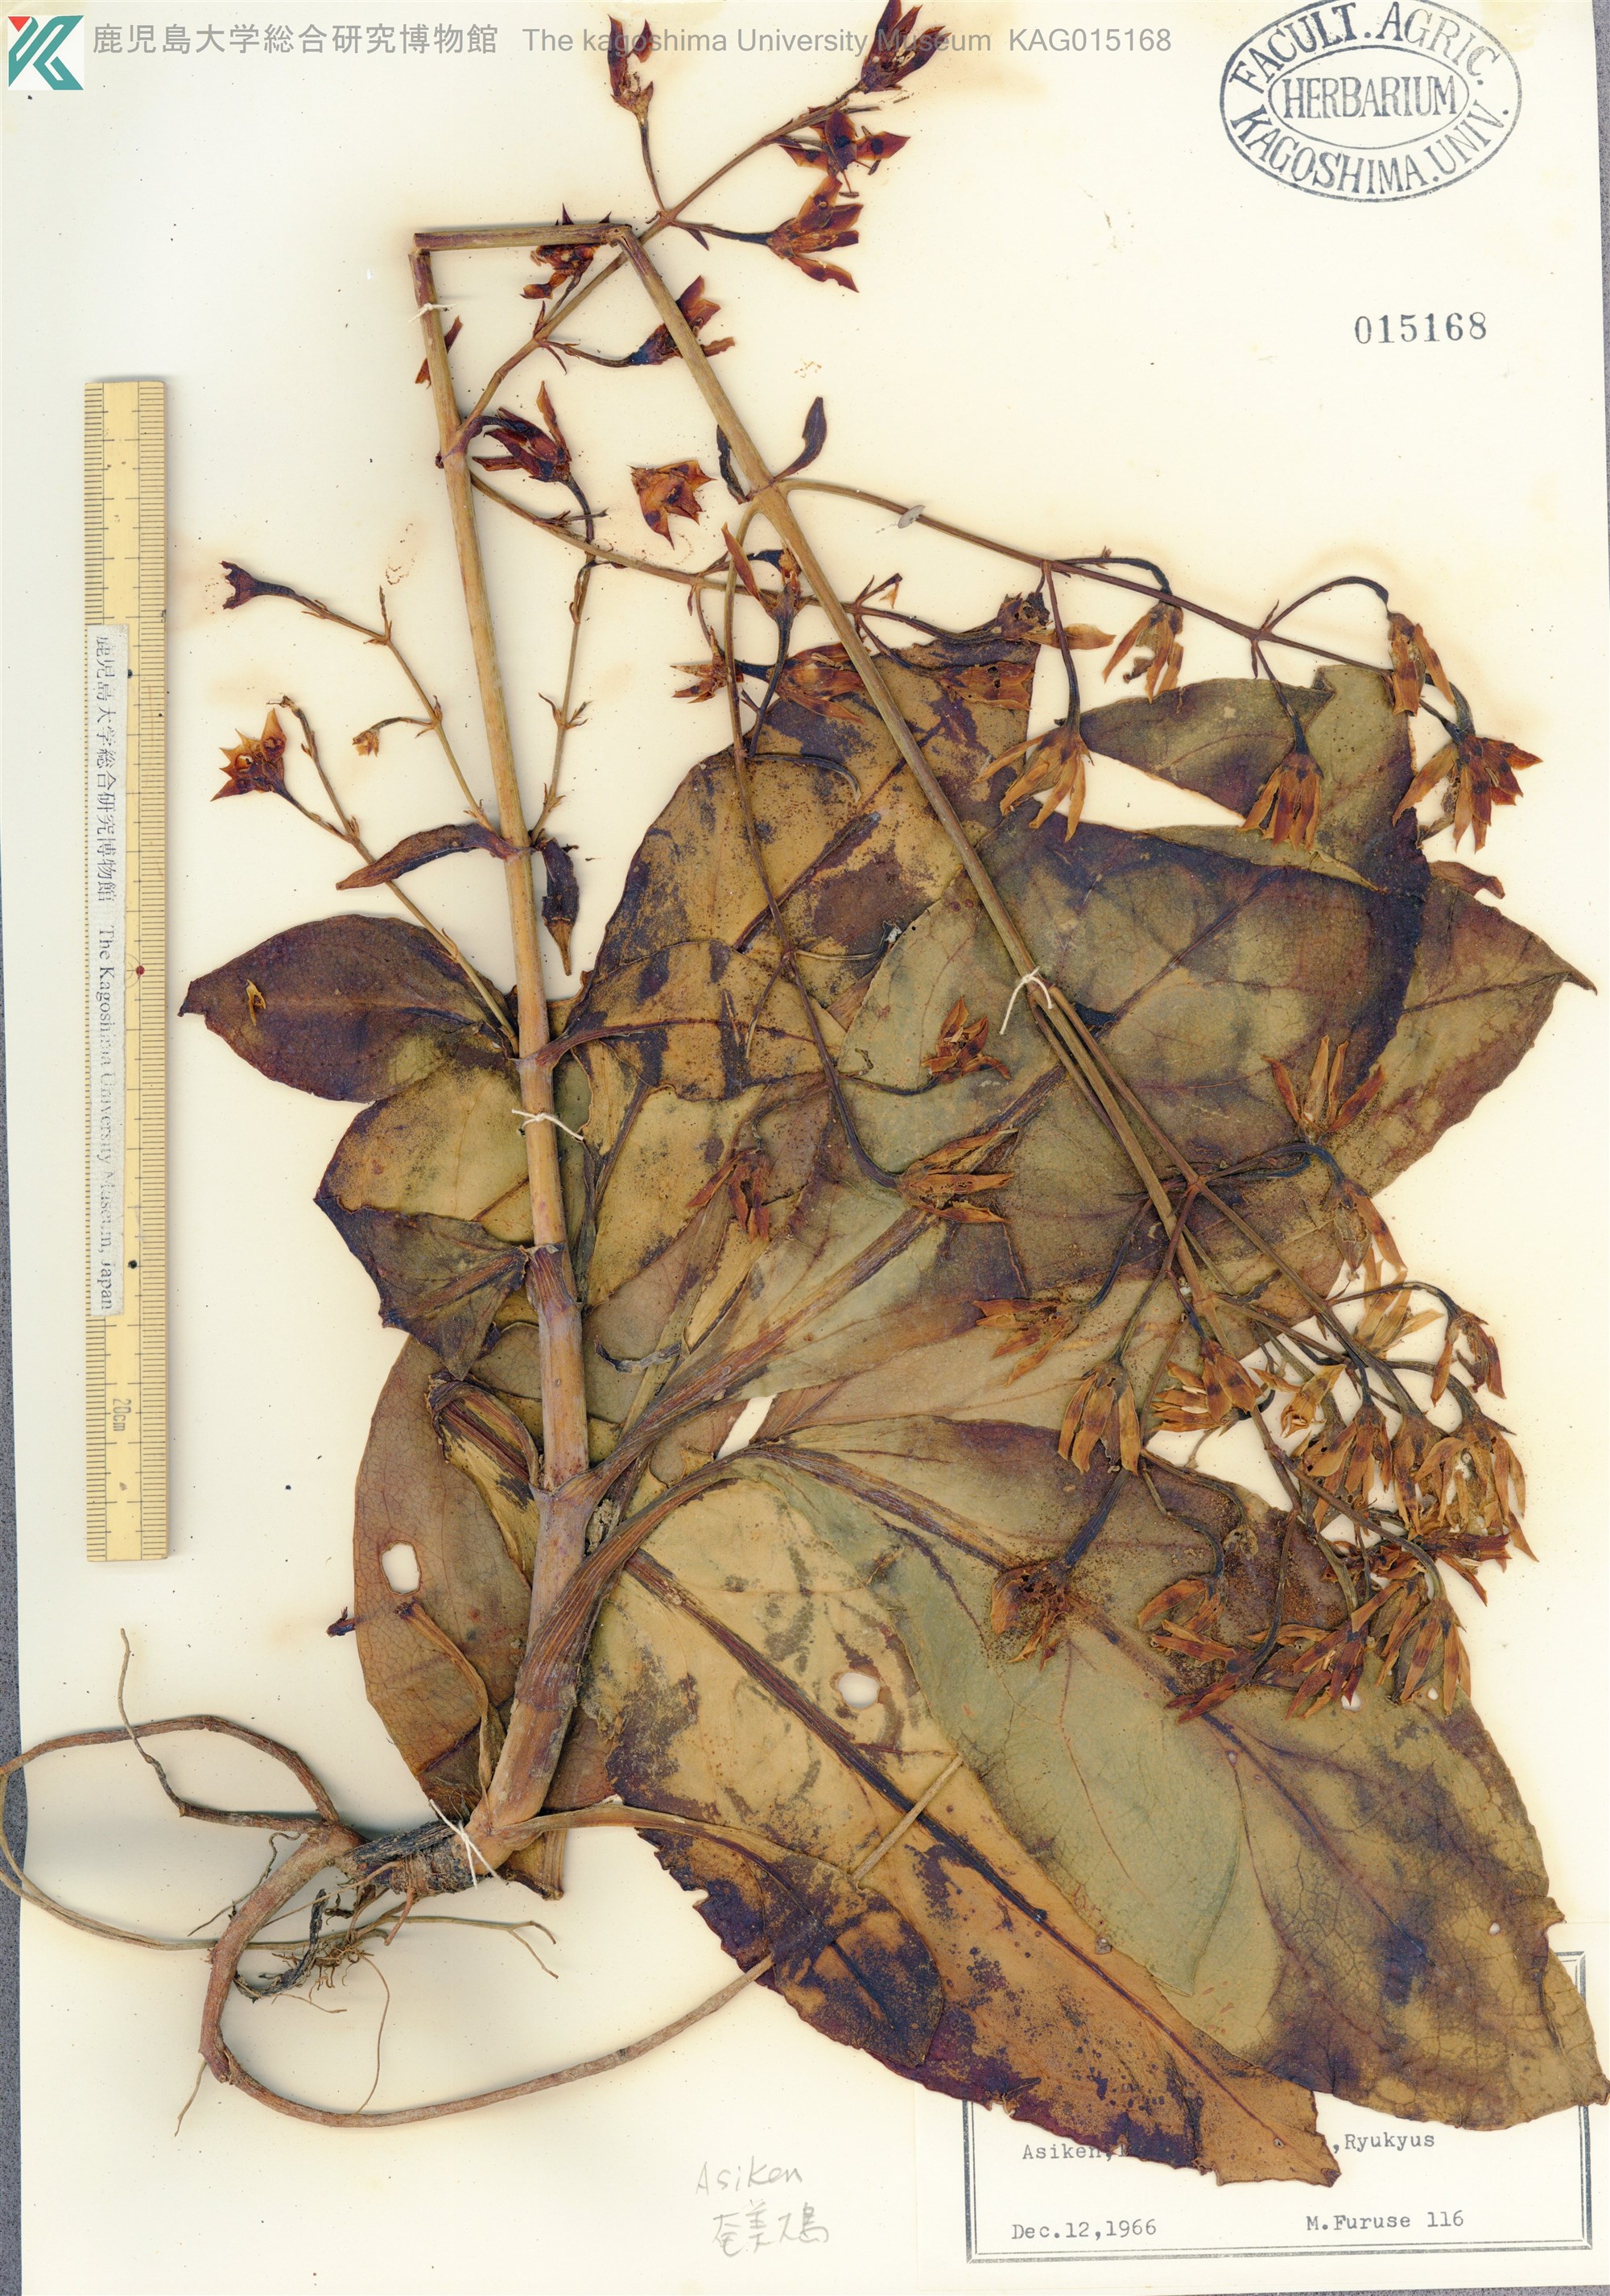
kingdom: Plantae
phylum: Tracheophyta
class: Magnoliopsida
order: Gentianales
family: Gentianaceae
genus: Swertia
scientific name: Swertia tashiroi
